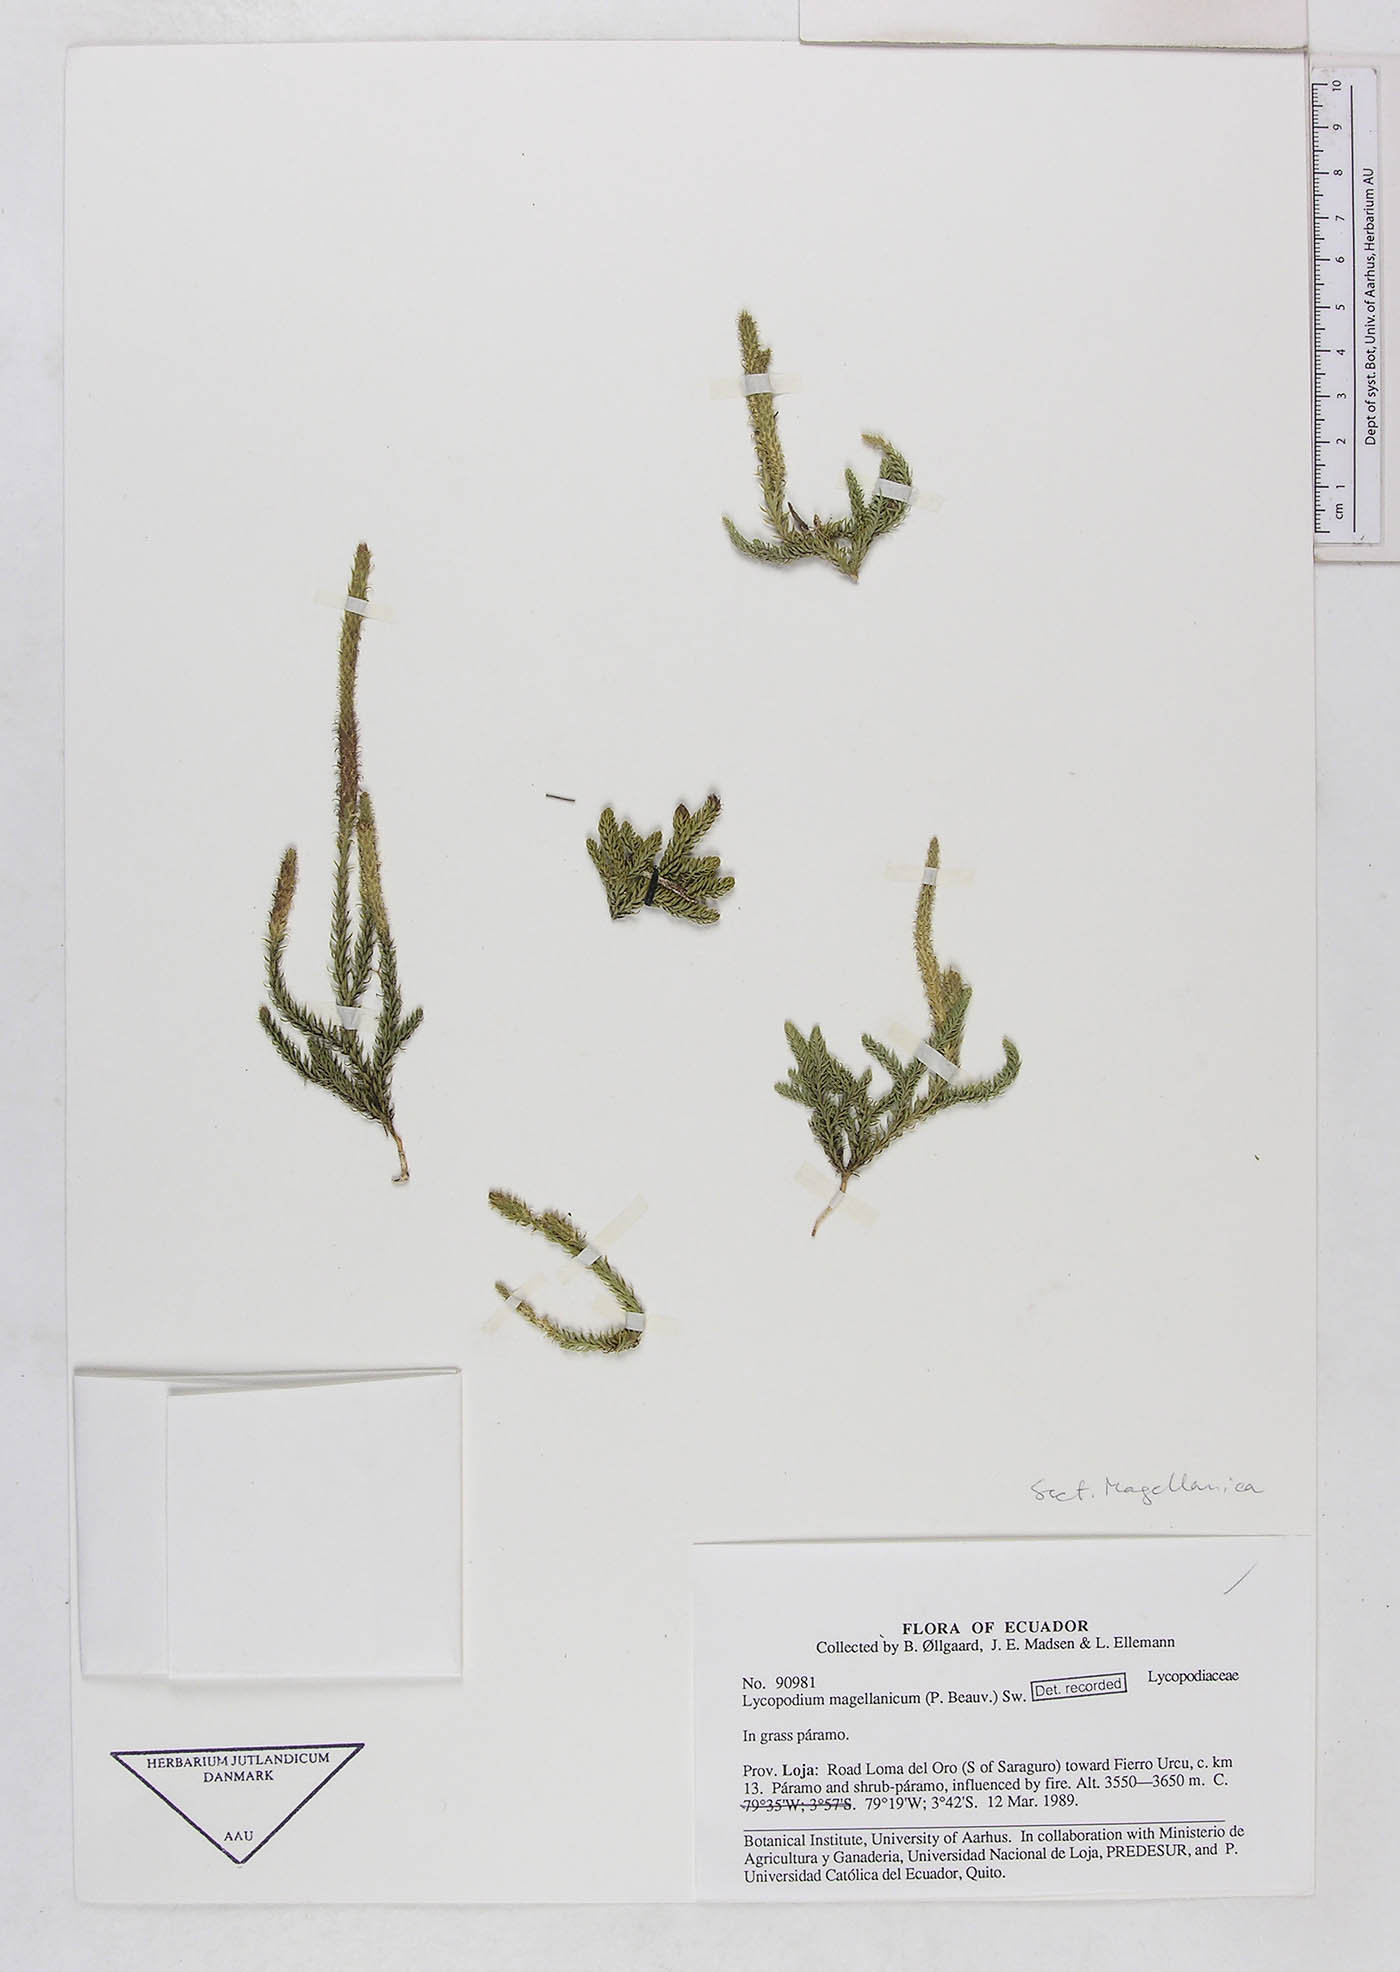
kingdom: Plantae
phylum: Tracheophyta
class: Lycopodiopsida
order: Lycopodiales
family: Lycopodiaceae
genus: Austrolycopodium
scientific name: Austrolycopodium magellanicum
